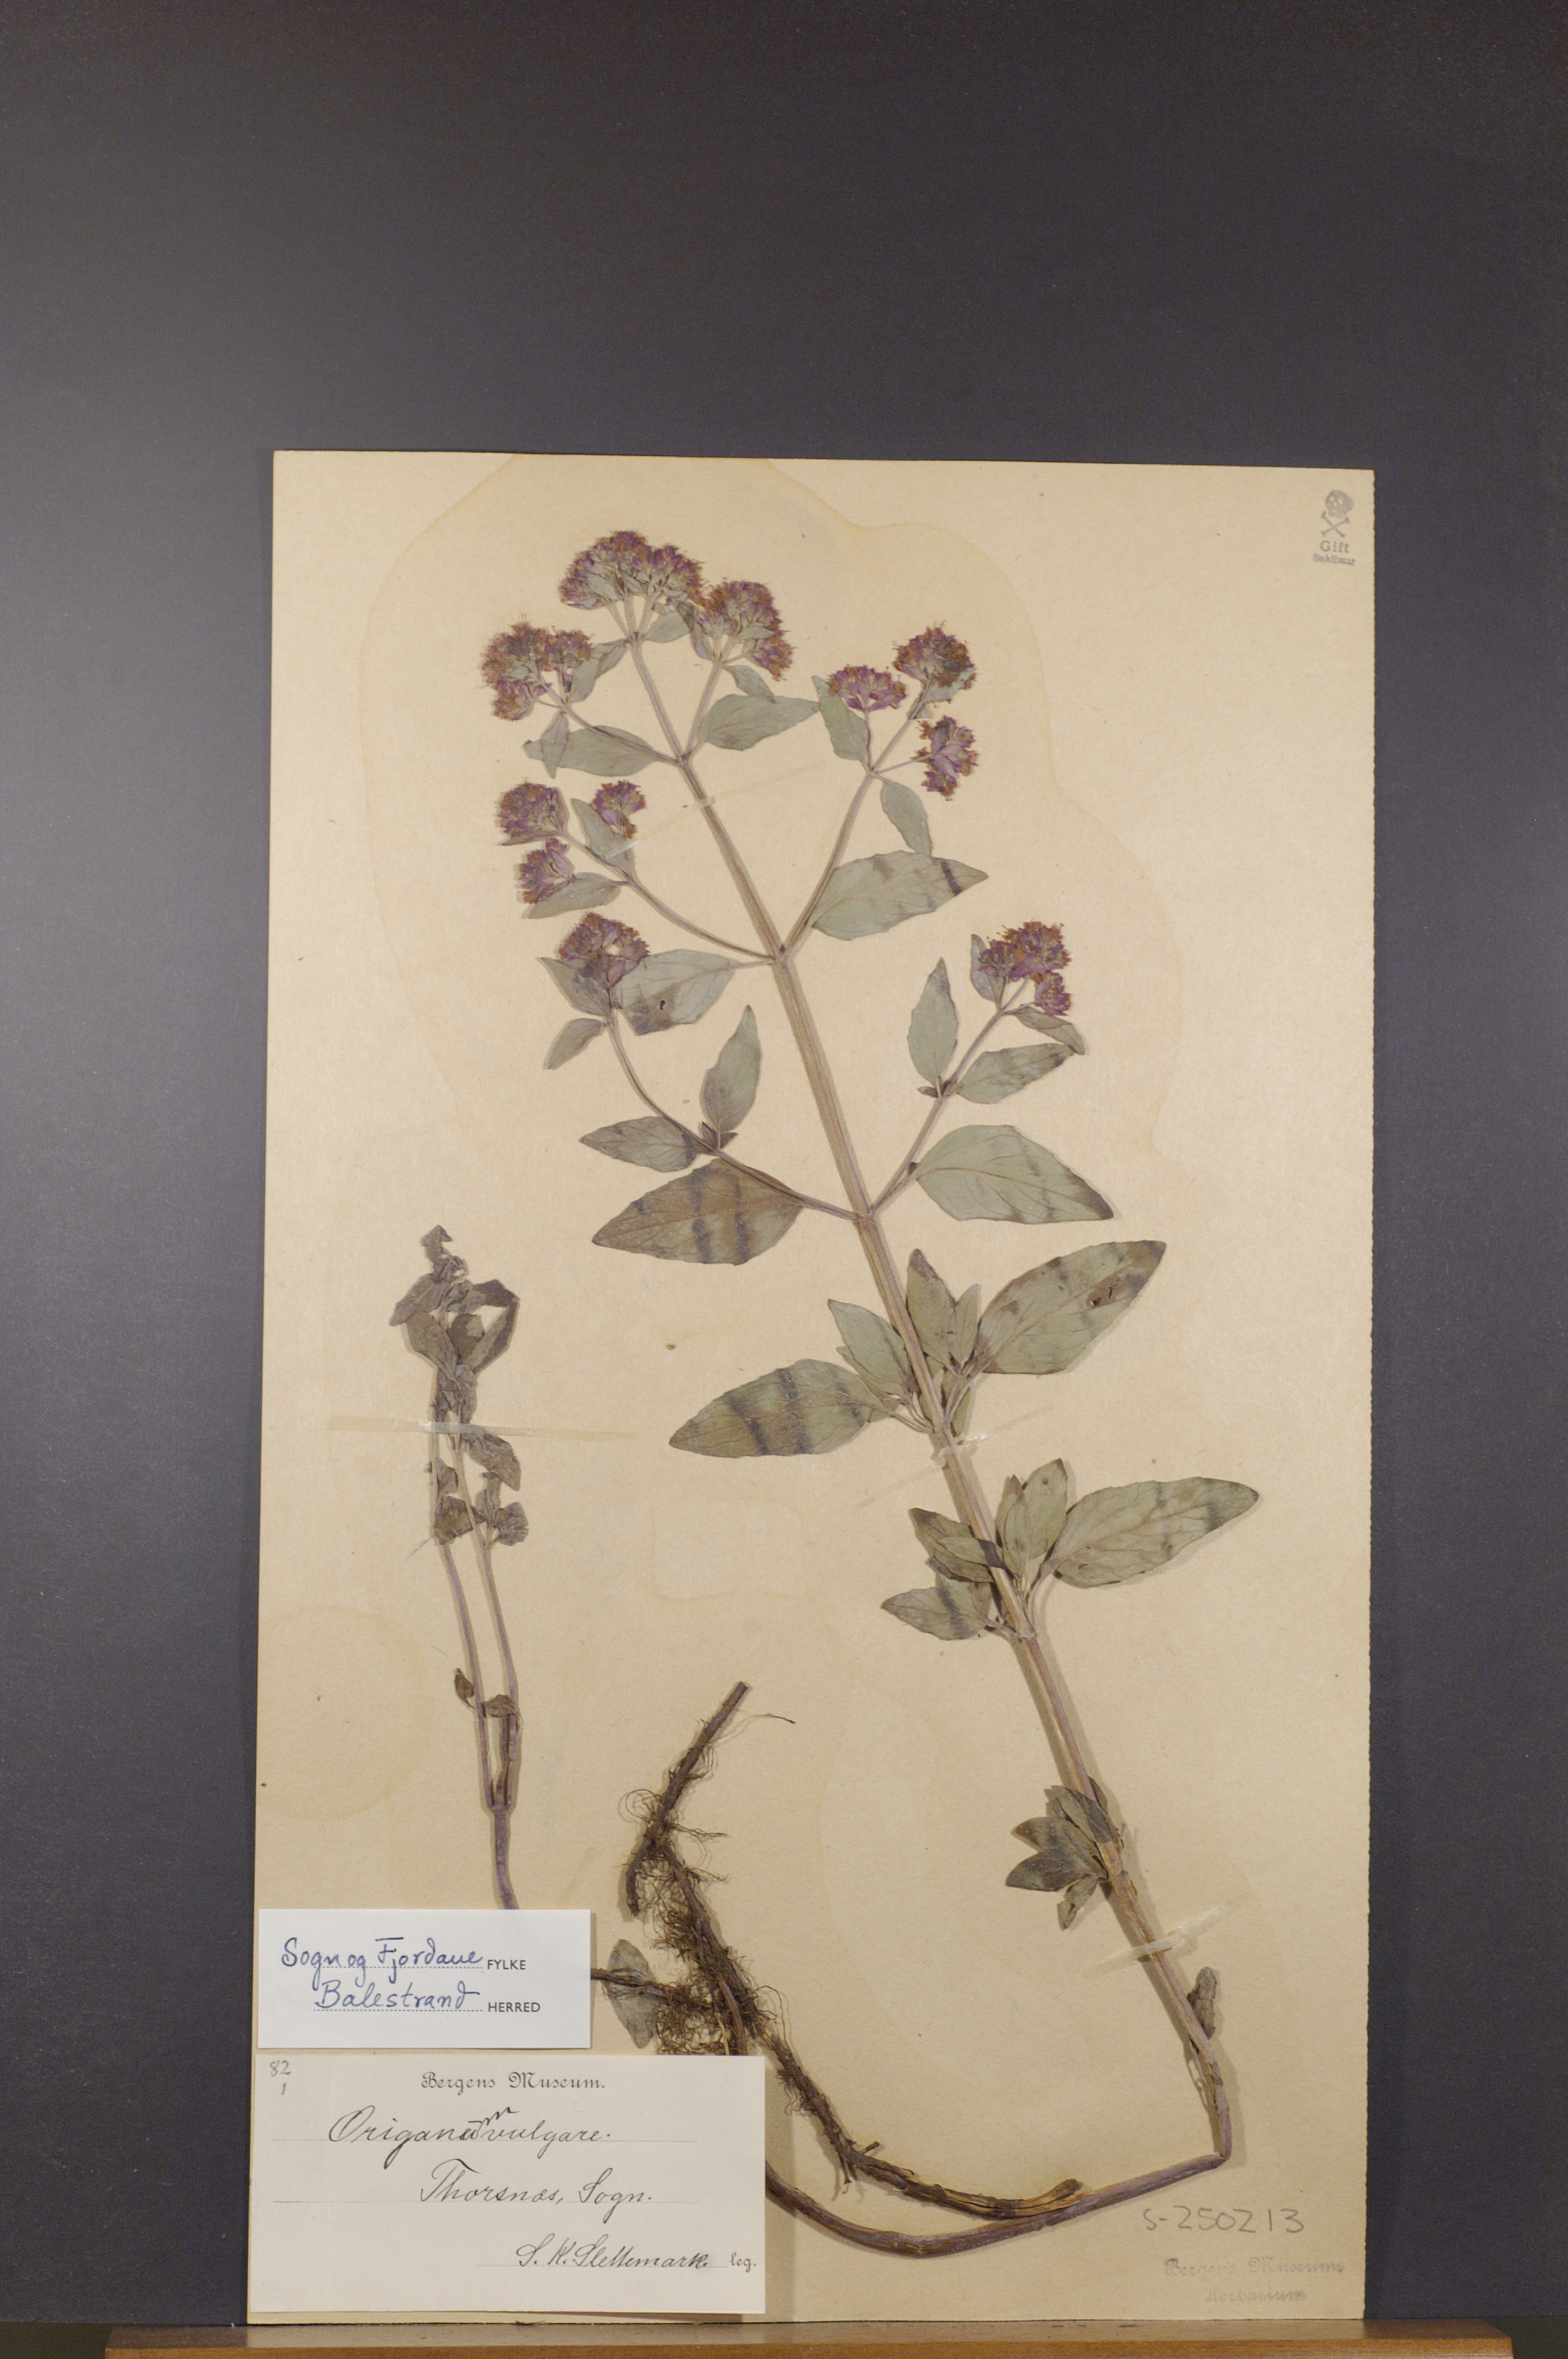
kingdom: Plantae
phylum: Tracheophyta
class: Magnoliopsida
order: Lamiales
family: Lamiaceae
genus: Origanum
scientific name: Origanum vulgare
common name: Wild marjoram
